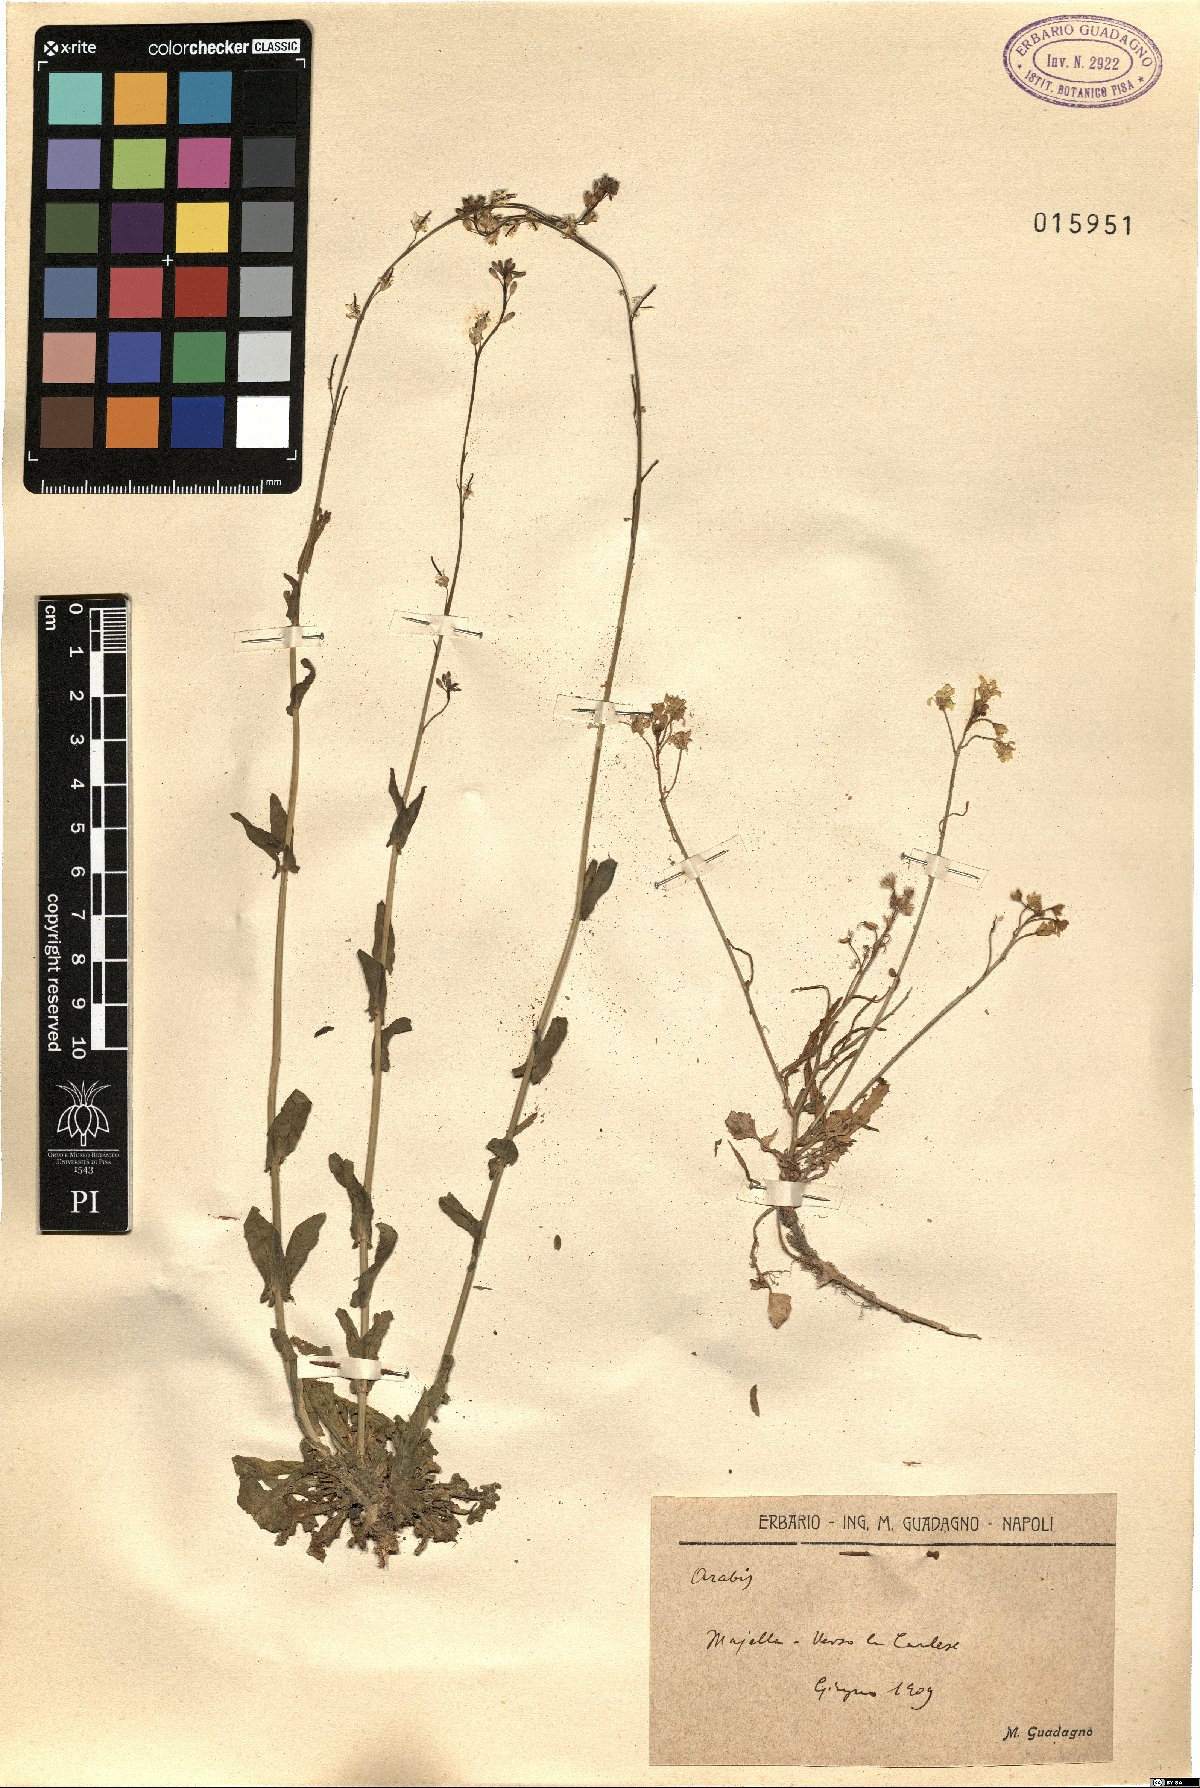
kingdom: Plantae
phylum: Tracheophyta
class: Magnoliopsida
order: Brassicales
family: Brassicaceae
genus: Arabis
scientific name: Arabis
